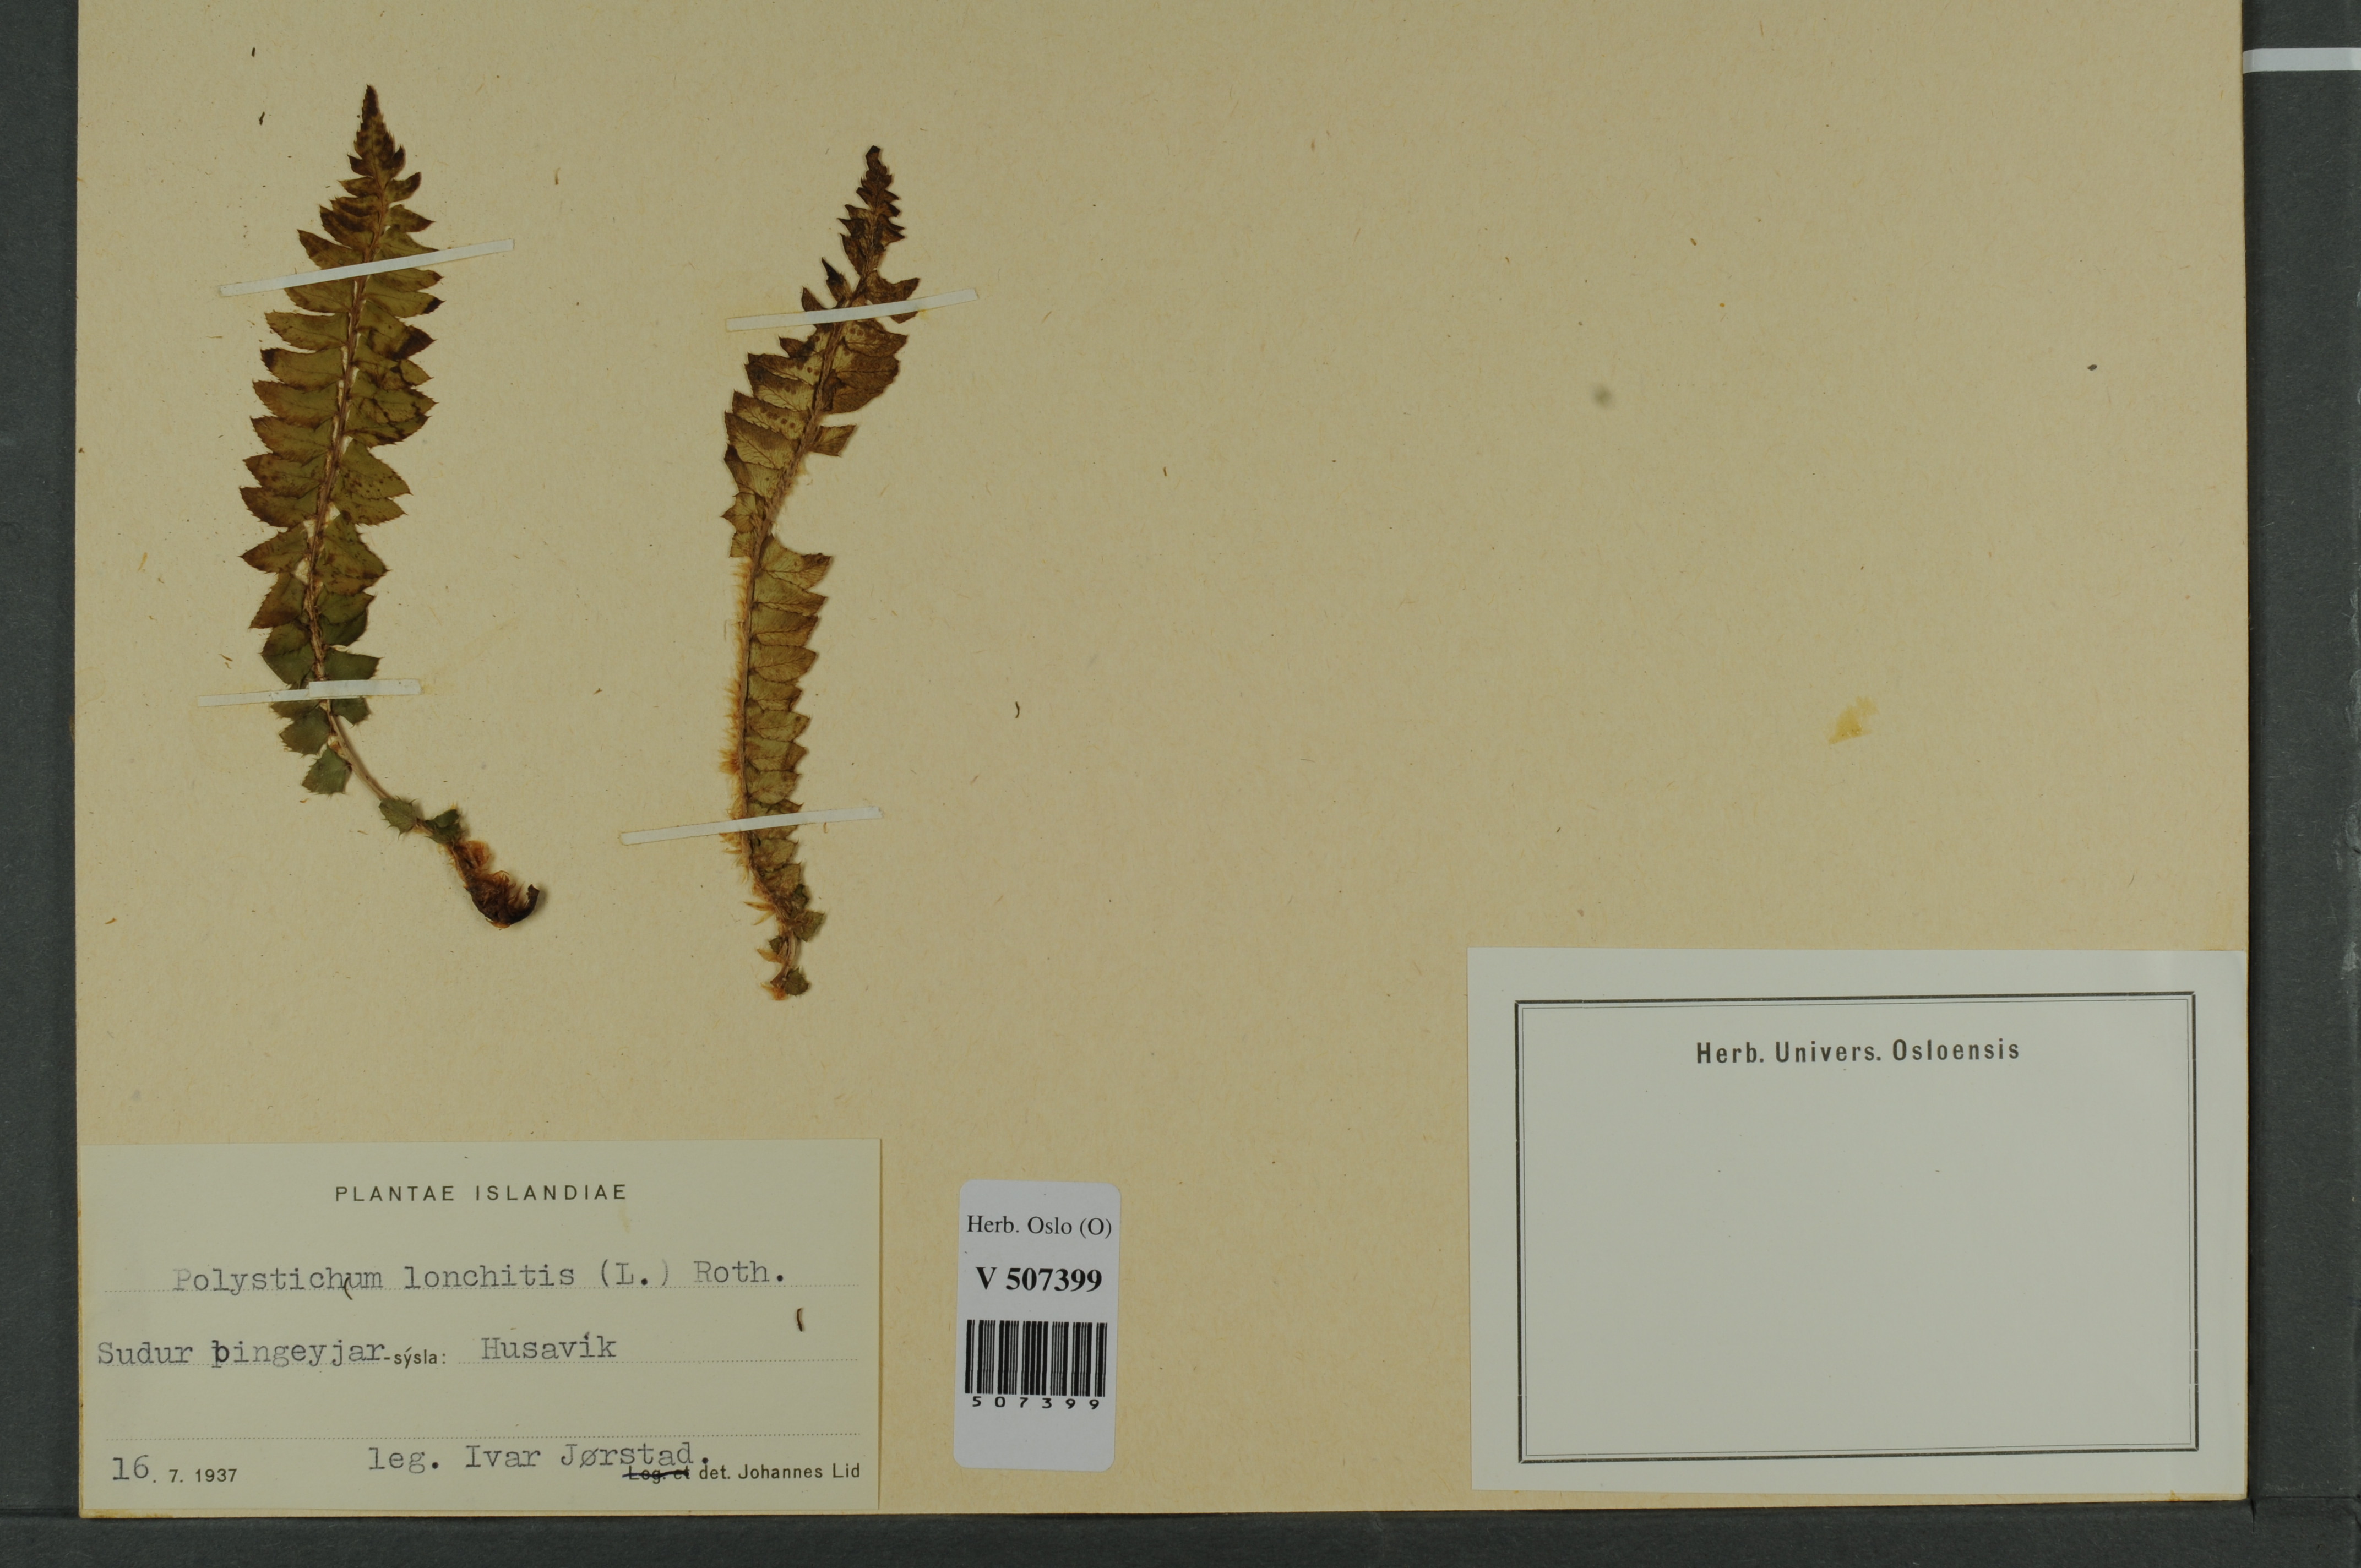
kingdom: Plantae
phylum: Tracheophyta
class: Polypodiopsida
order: Polypodiales
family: Dryopteridaceae
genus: Polystichum
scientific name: Polystichum lonchitis
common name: Holly fern
